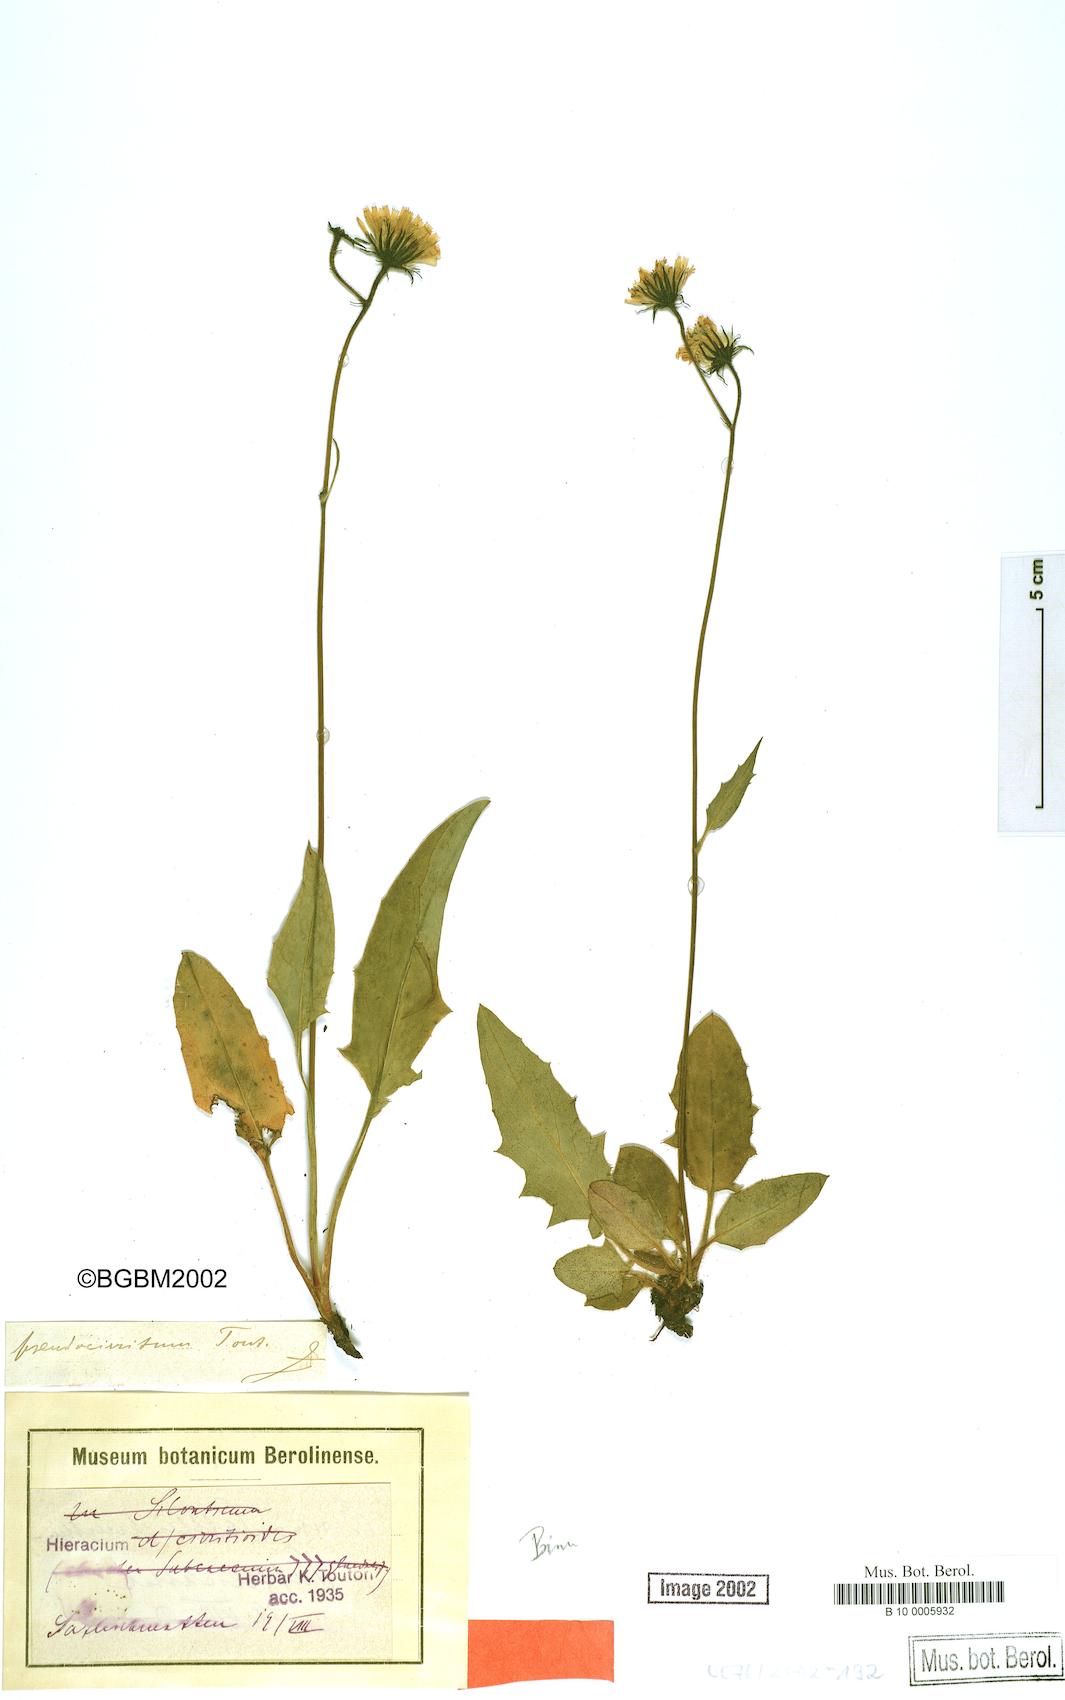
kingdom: Plantae
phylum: Tracheophyta
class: Magnoliopsida
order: Asterales
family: Asteraceae
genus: Hieracium
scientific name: Hieracium cirritum
